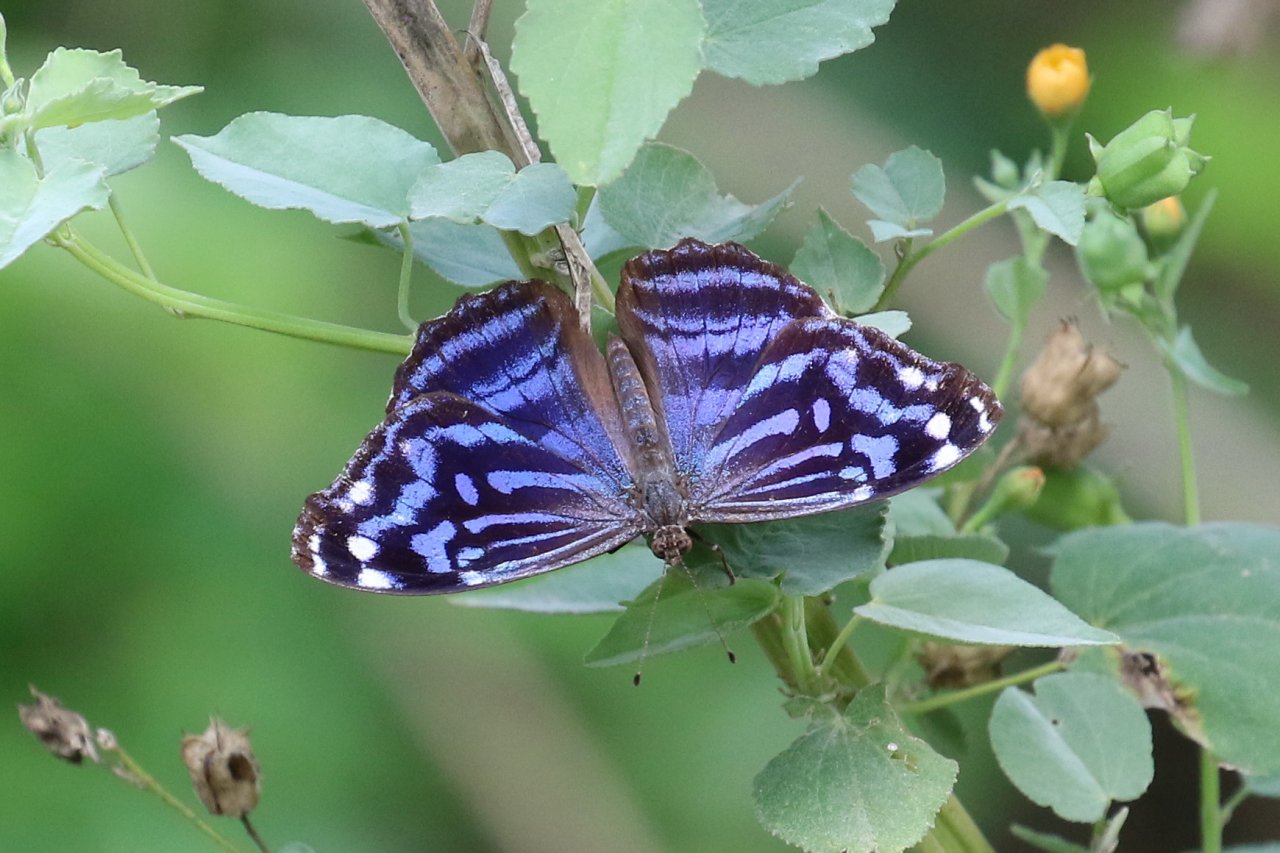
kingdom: Animalia
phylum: Arthropoda
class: Insecta
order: Lepidoptera
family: Nymphalidae
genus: Myscelia
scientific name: Myscelia ethusa
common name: Mexican Bluewing
